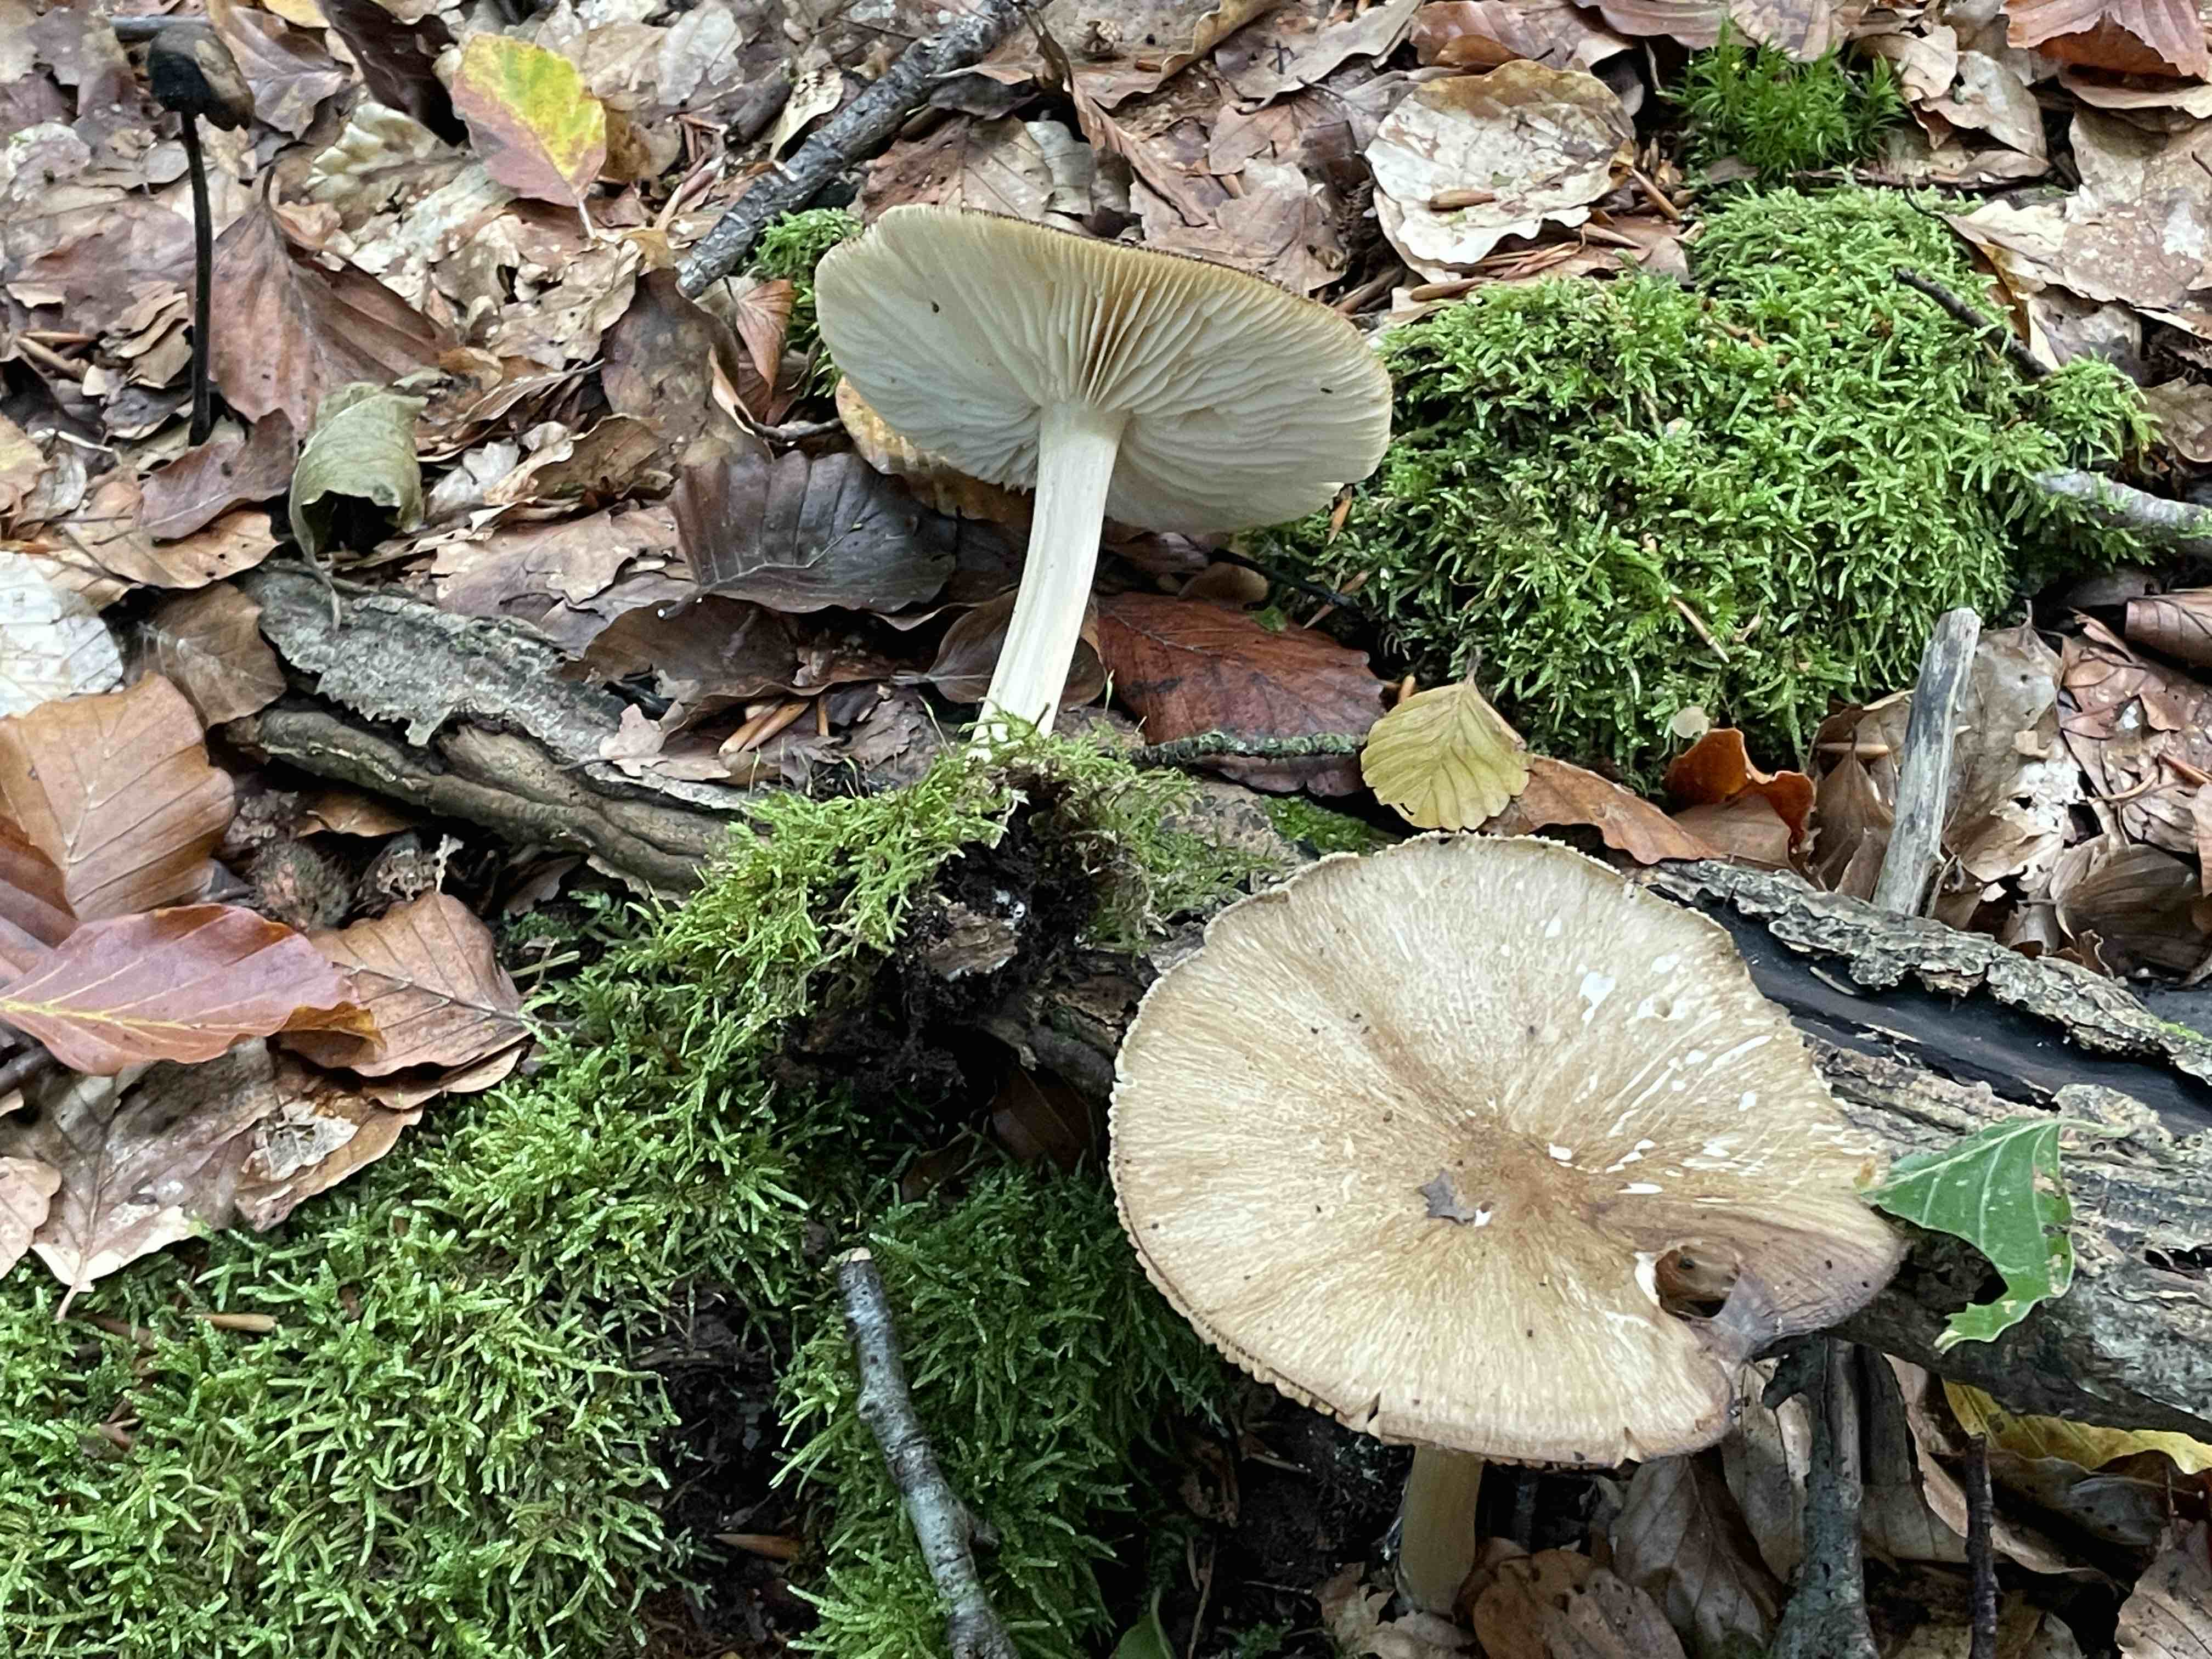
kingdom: Fungi
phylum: Basidiomycota
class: Agaricomycetes
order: Agaricales
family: Tricholomataceae
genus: Megacollybia
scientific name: Megacollybia platyphylla
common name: bredbladet væbnerhat
